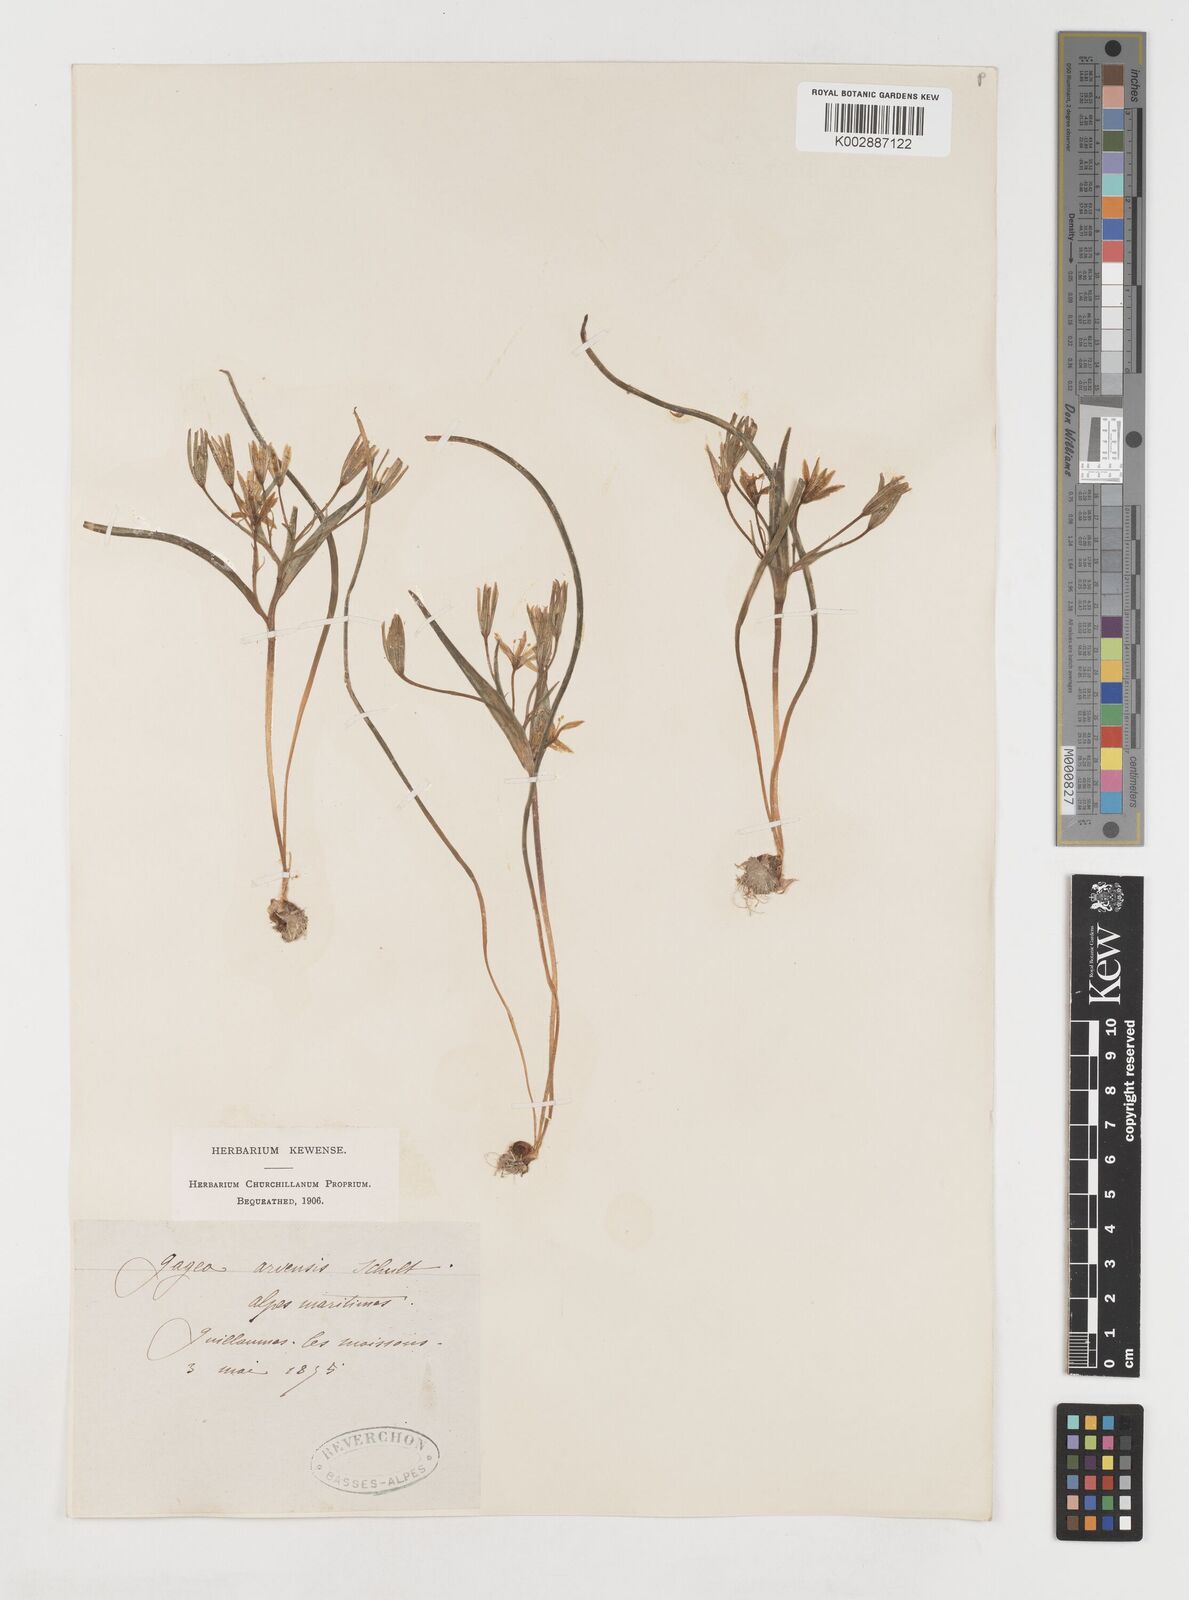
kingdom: Plantae
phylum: Tracheophyta
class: Liliopsida
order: Liliales
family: Liliaceae
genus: Gagea
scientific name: Gagea villosa
